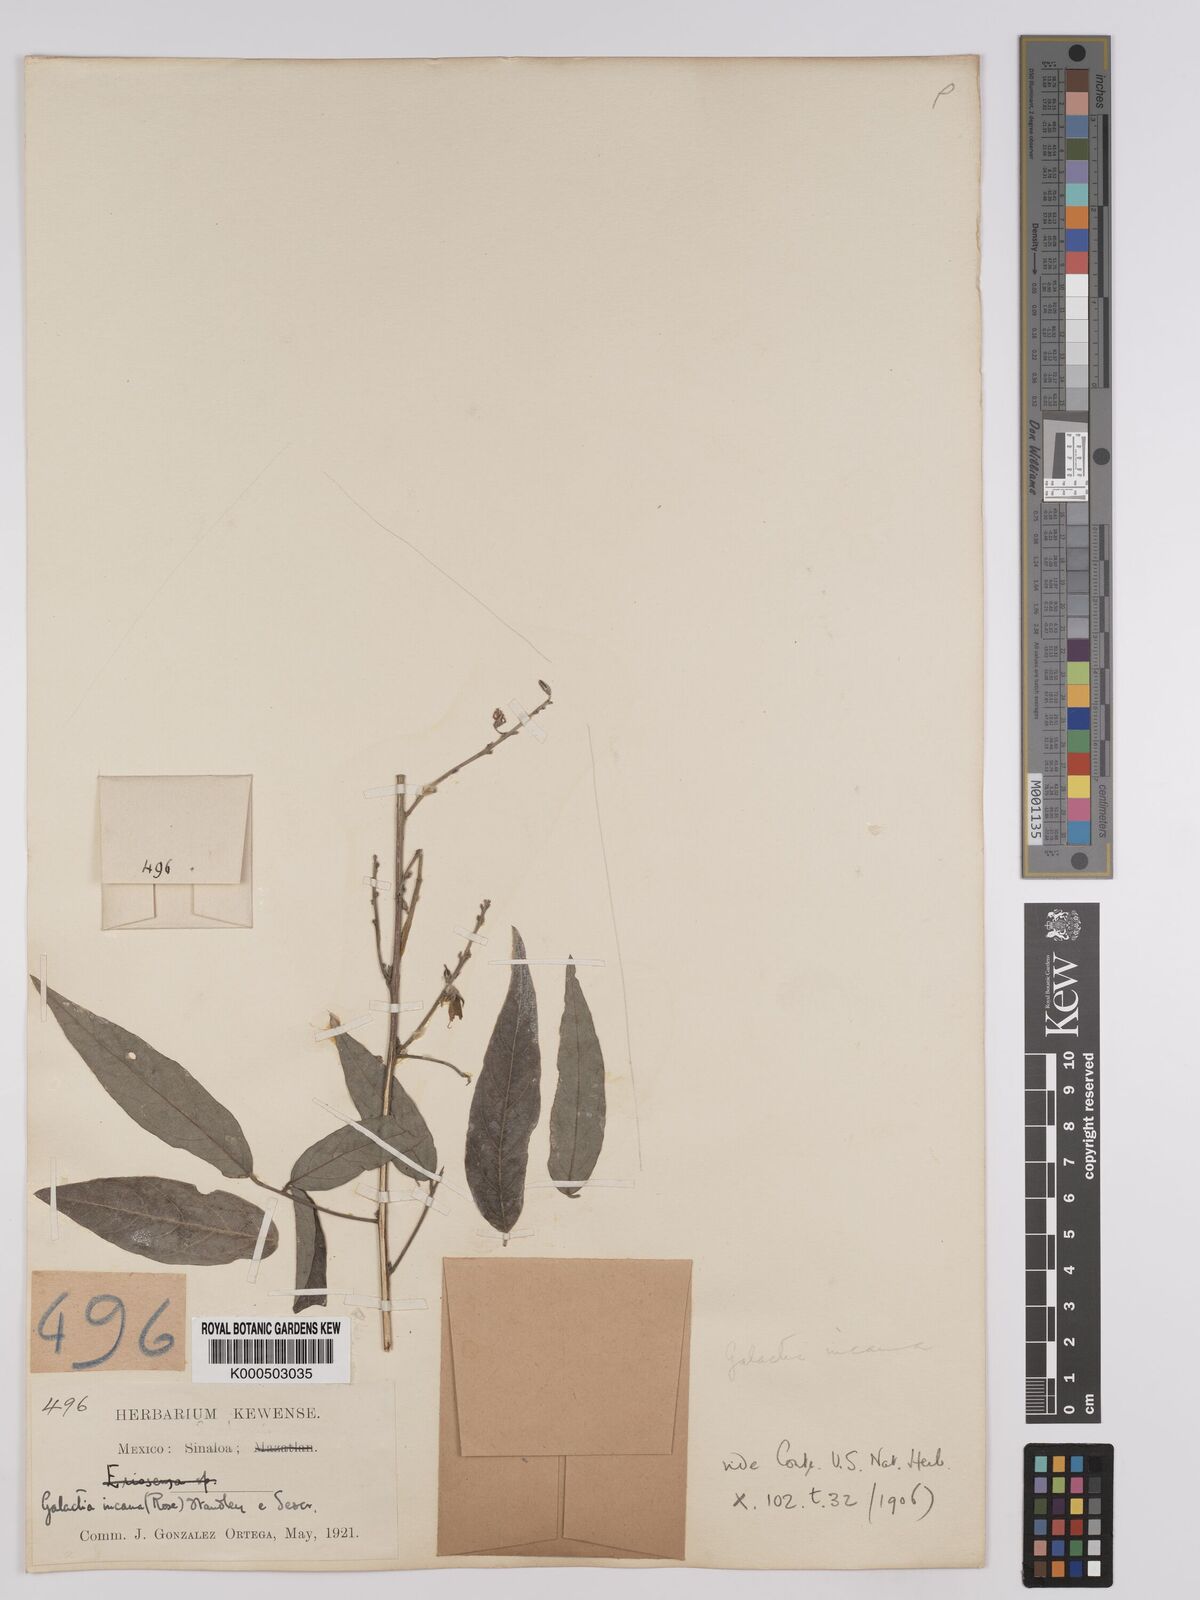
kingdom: Plantae
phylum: Tracheophyta
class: Magnoliopsida
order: Fabales
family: Fabaceae
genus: Galactia
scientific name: Galactia incana
